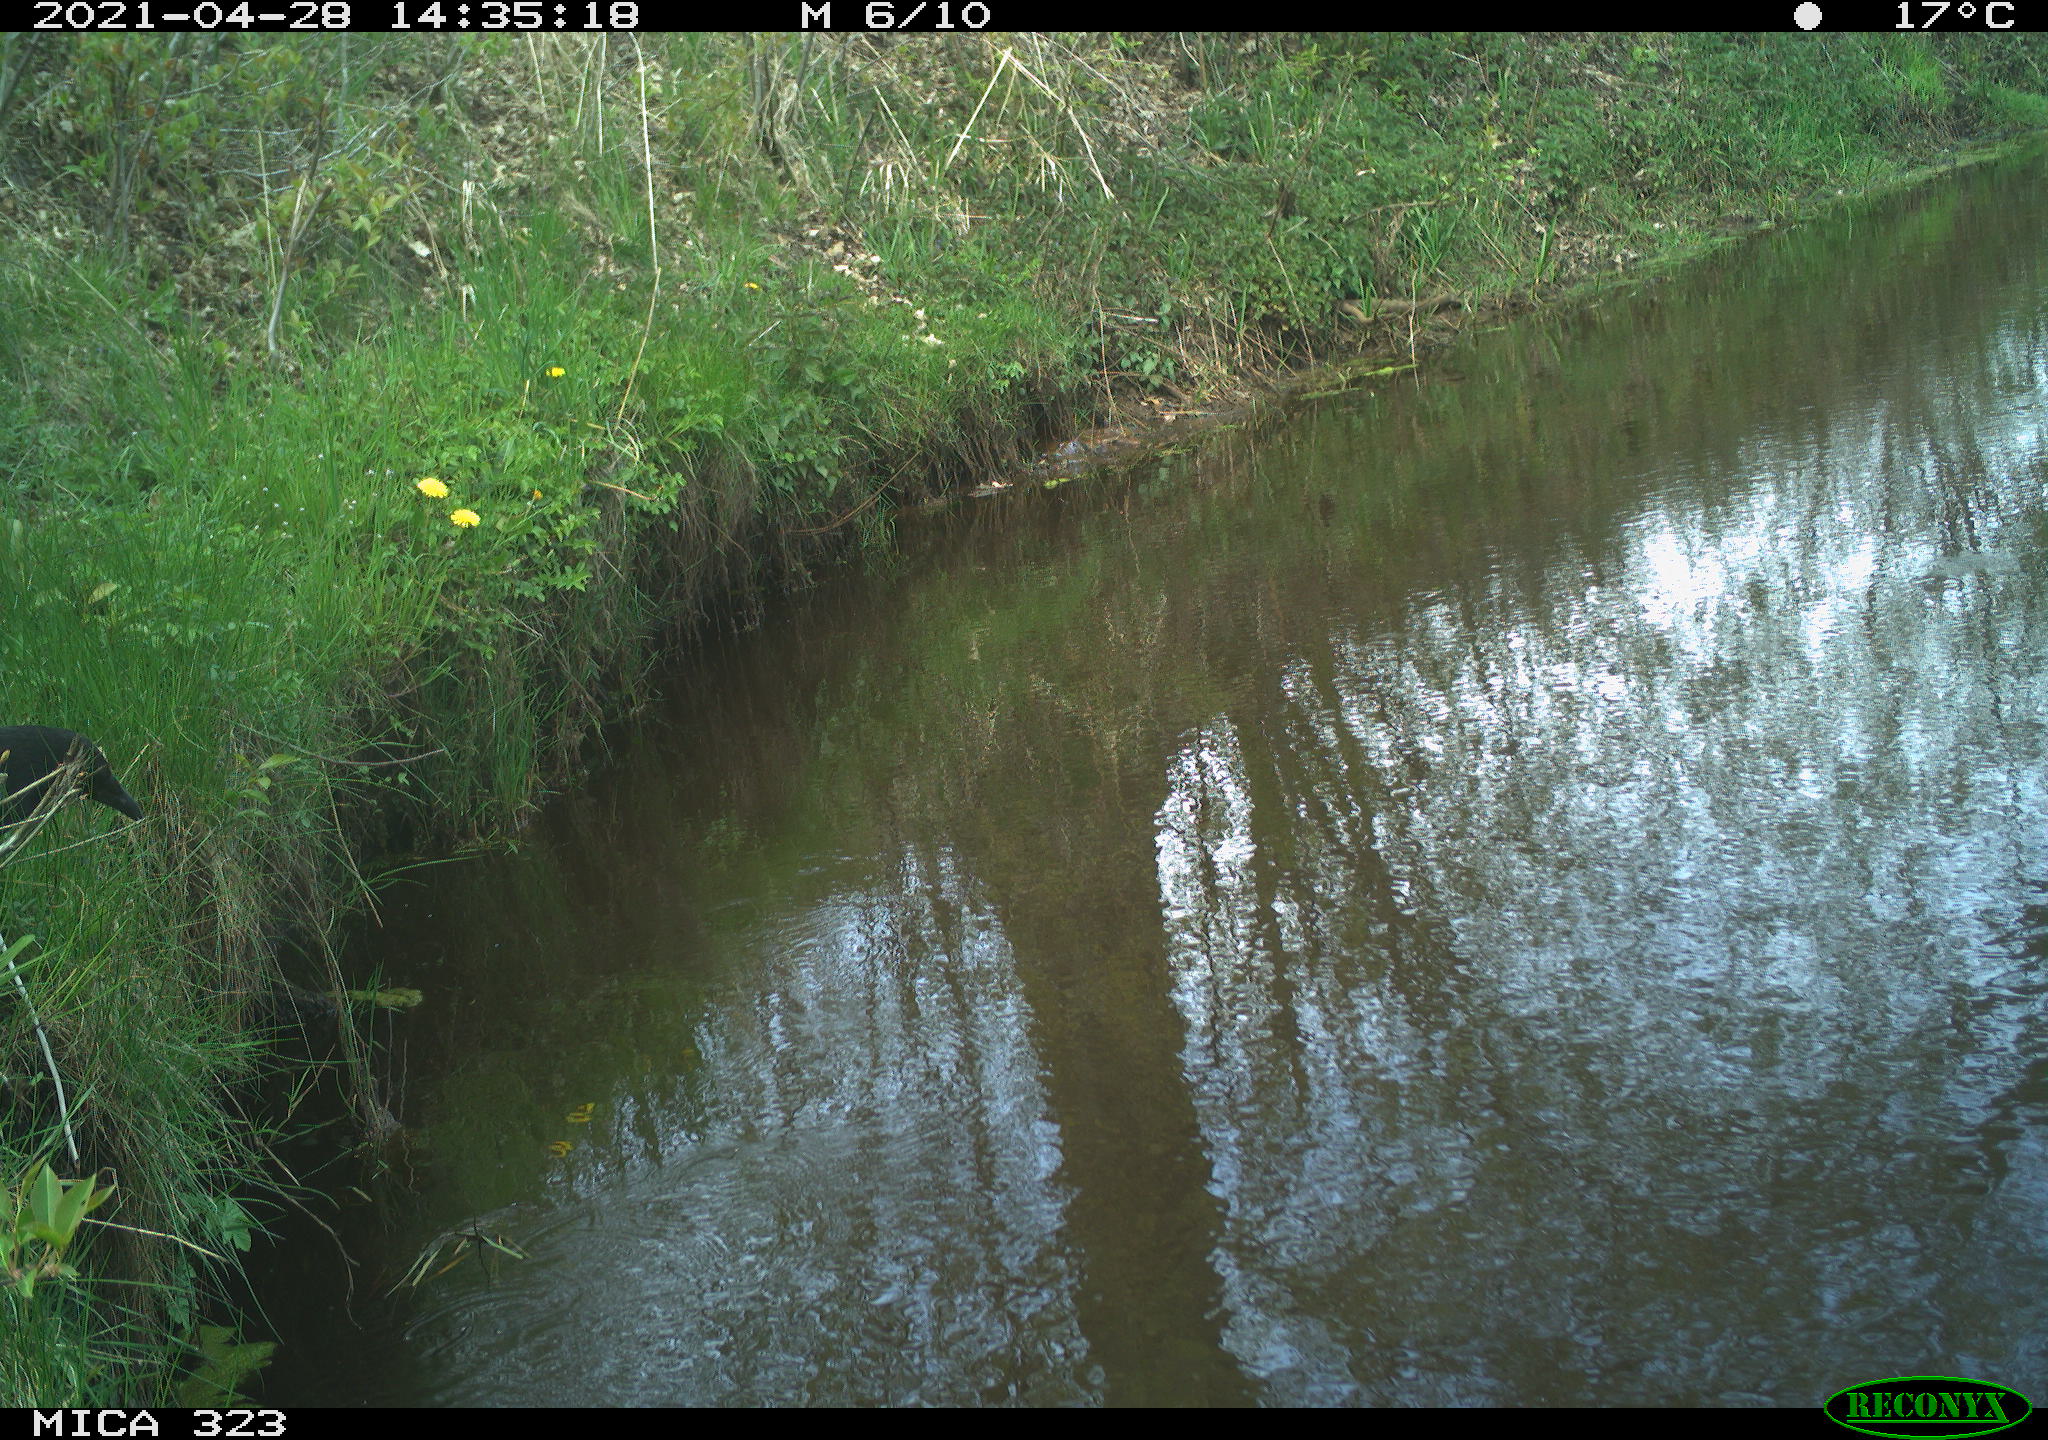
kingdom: Animalia
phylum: Chordata
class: Aves
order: Passeriformes
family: Corvidae
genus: Corvus
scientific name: Corvus corone
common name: Carrion crow
